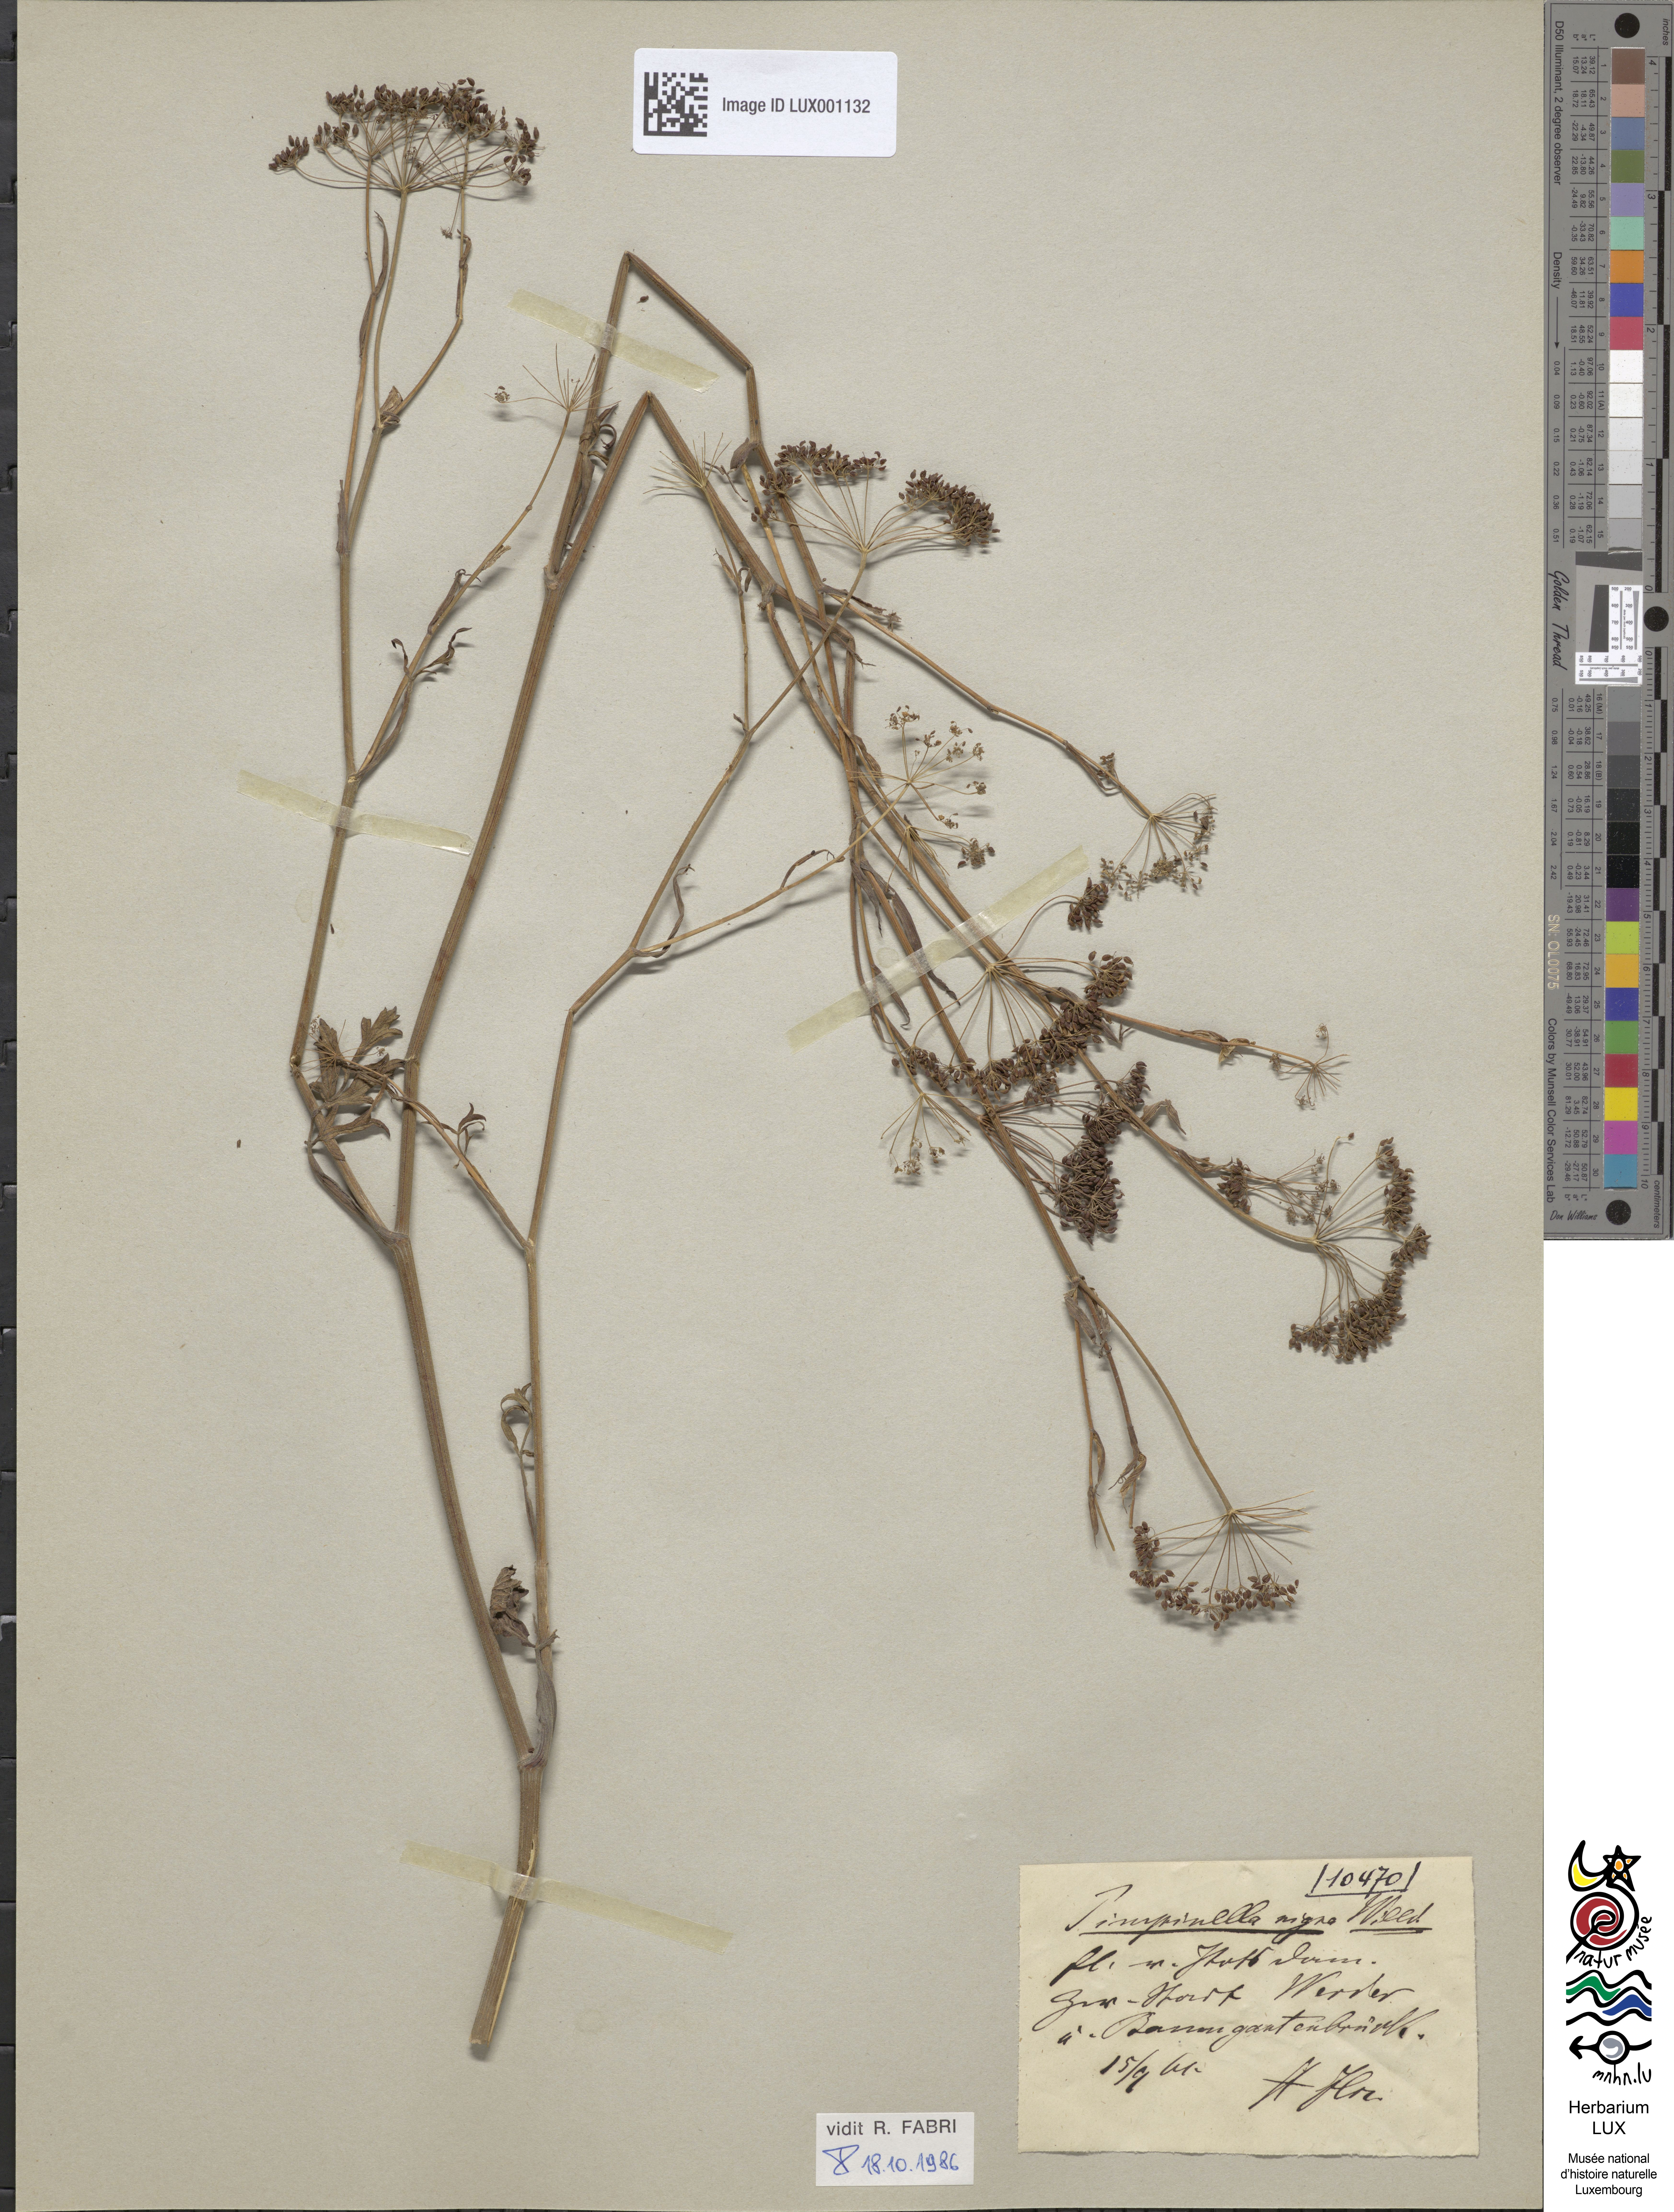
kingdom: Plantae
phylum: Tracheophyta
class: Magnoliopsida
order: Apiales
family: Apiaceae
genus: Pimpinella
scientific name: Pimpinella nigra
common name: Black pimpinella
